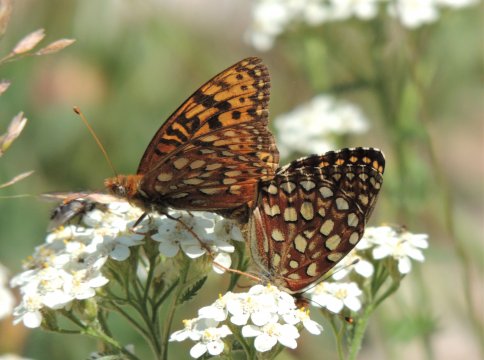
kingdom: Animalia
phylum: Arthropoda
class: Insecta
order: Lepidoptera
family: Nymphalidae
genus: Speyeria
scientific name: Speyeria hydaspe
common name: Hydaspe Fritillary
